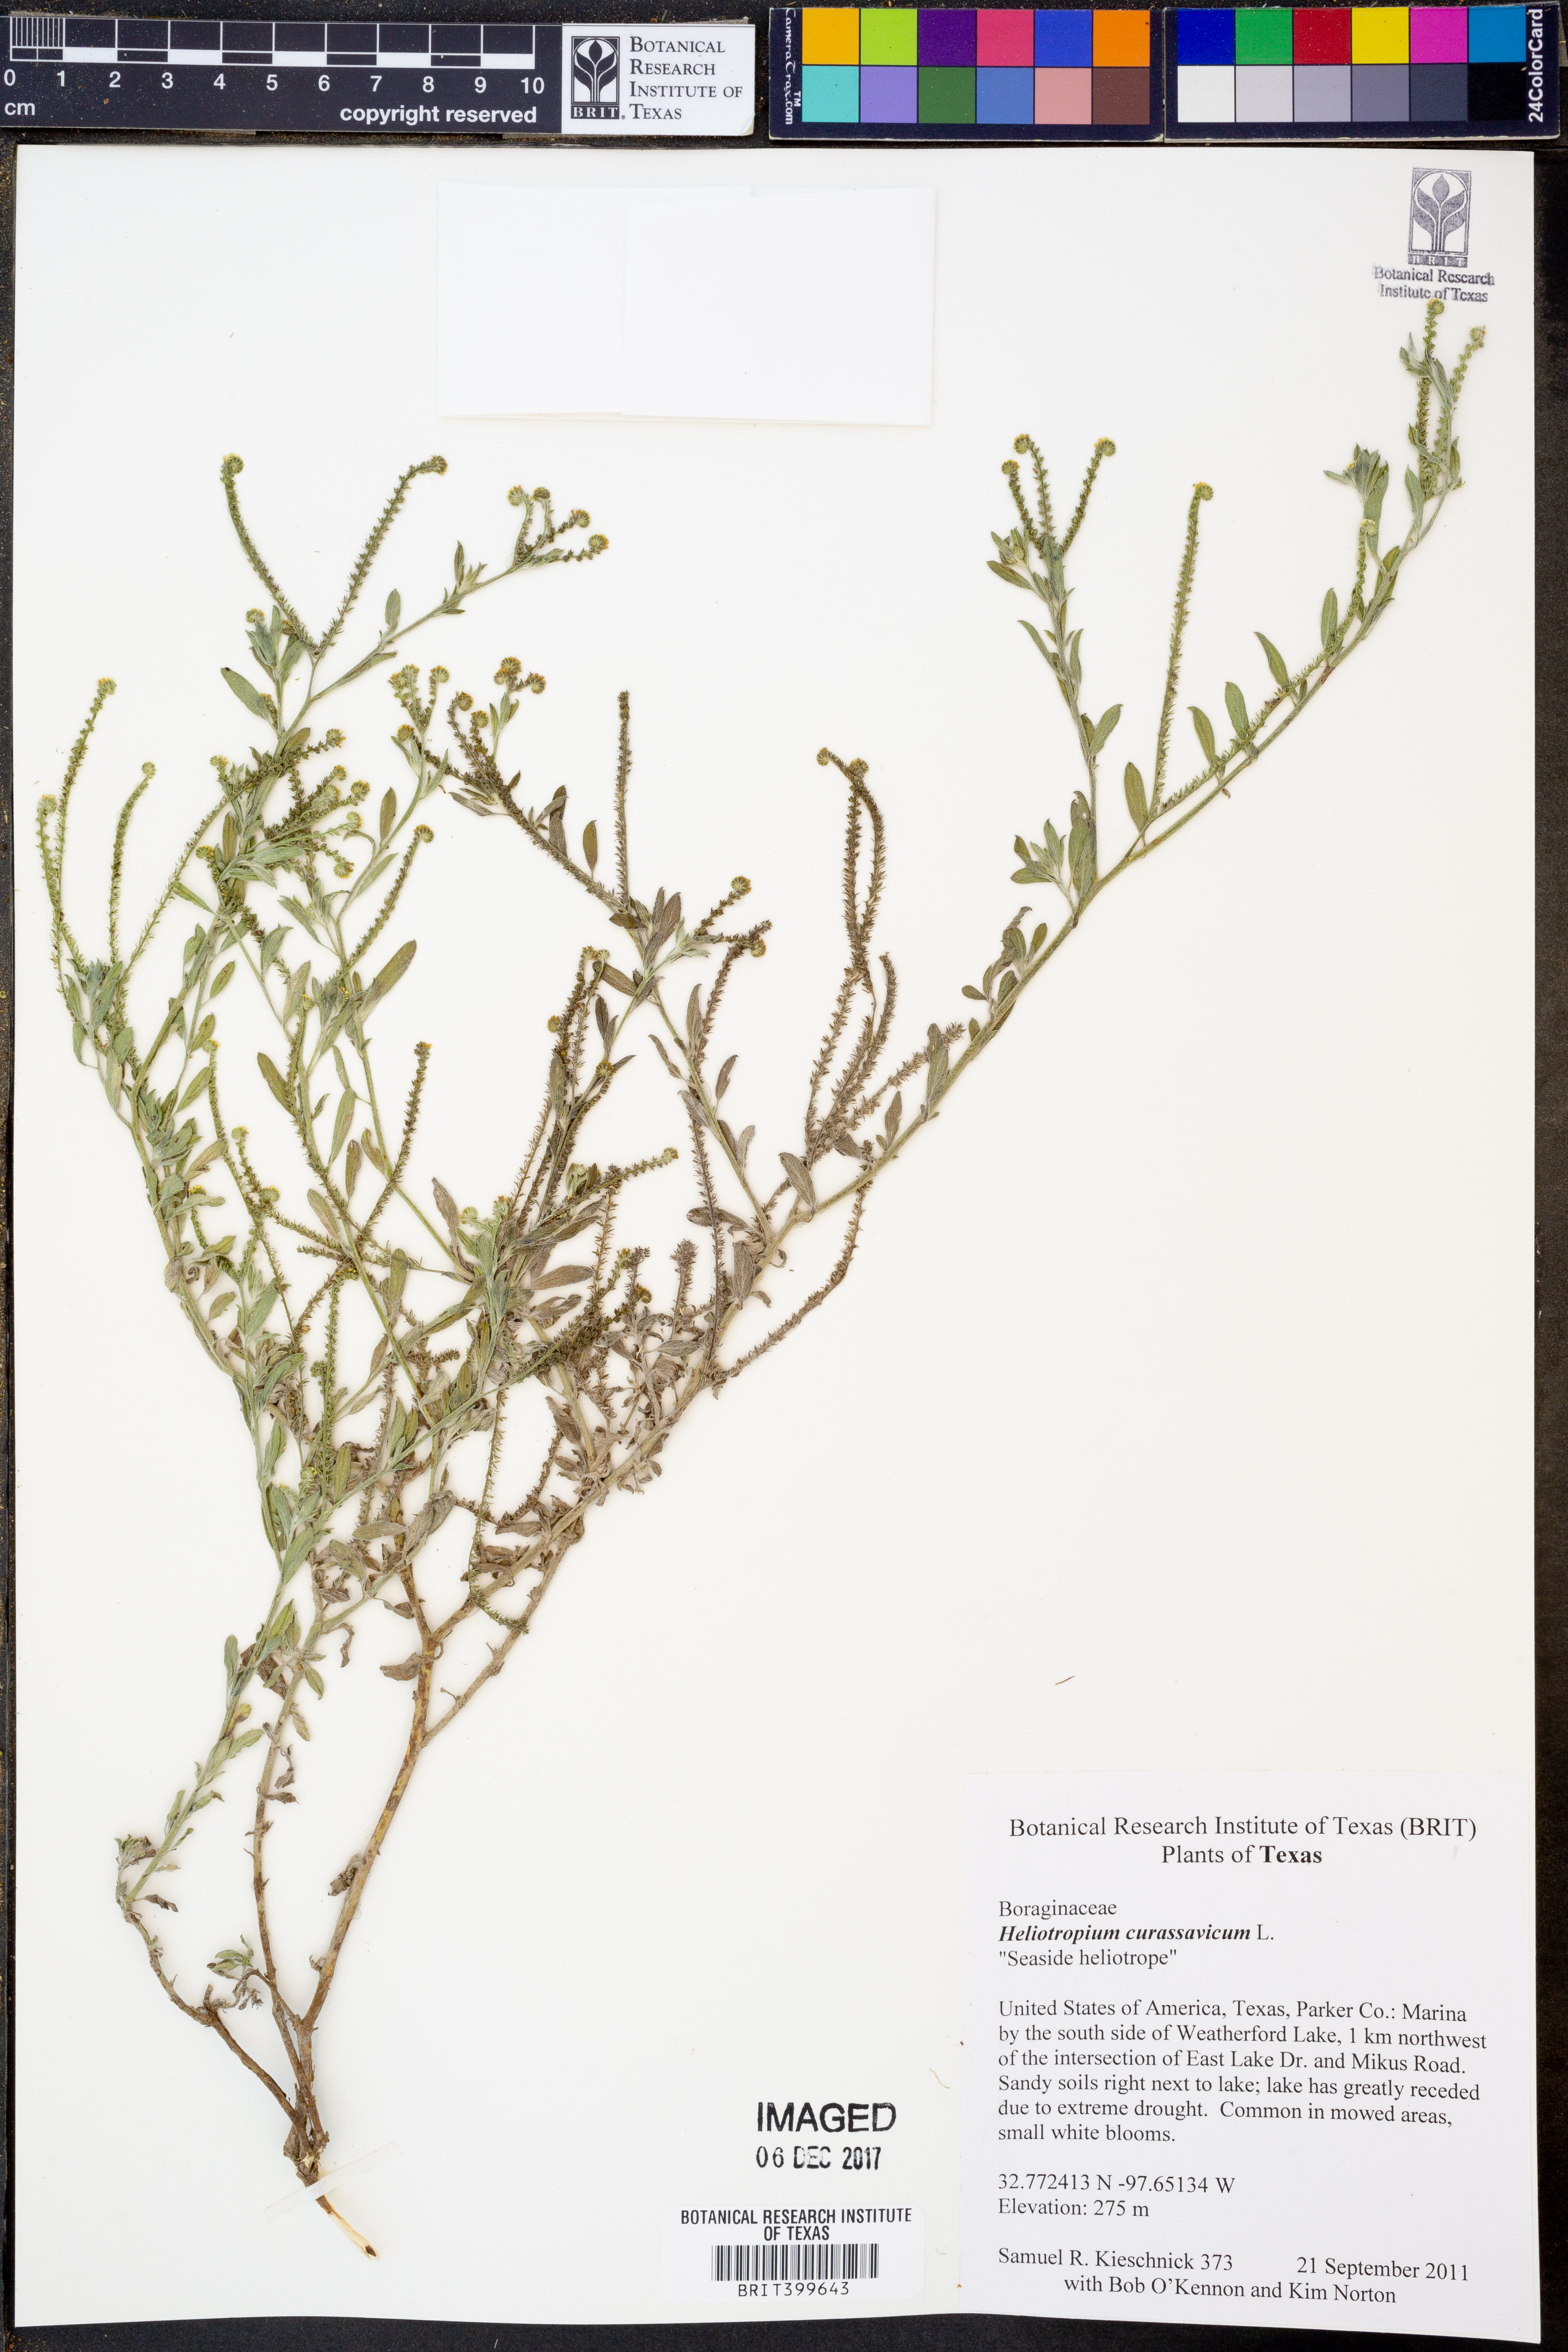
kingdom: Plantae
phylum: Tracheophyta
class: Magnoliopsida
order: Boraginales
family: Heliotropiaceae
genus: Heliotropium
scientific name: Heliotropium curassavicum
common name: Seaside heliotrope
